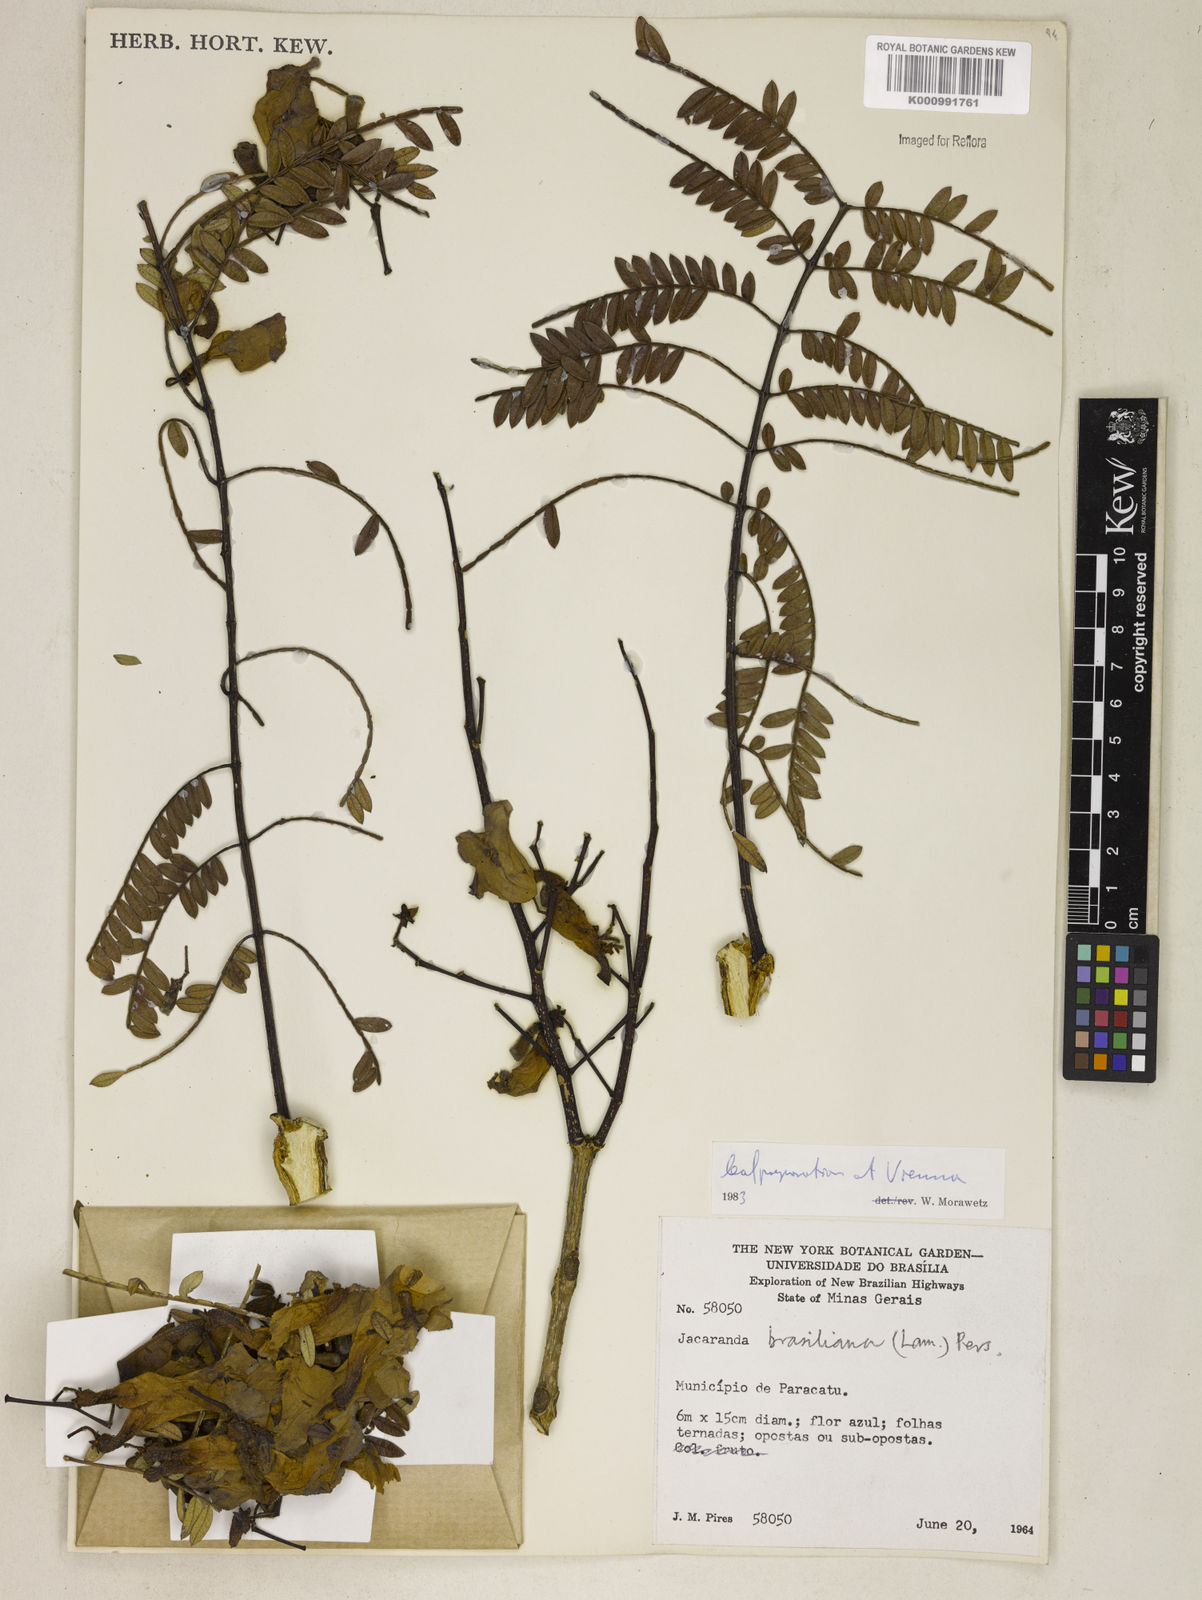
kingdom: Plantae
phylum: Tracheophyta
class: Magnoliopsida
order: Lamiales
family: Bignoniaceae
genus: Jacaranda
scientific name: Jacaranda brasiliana
